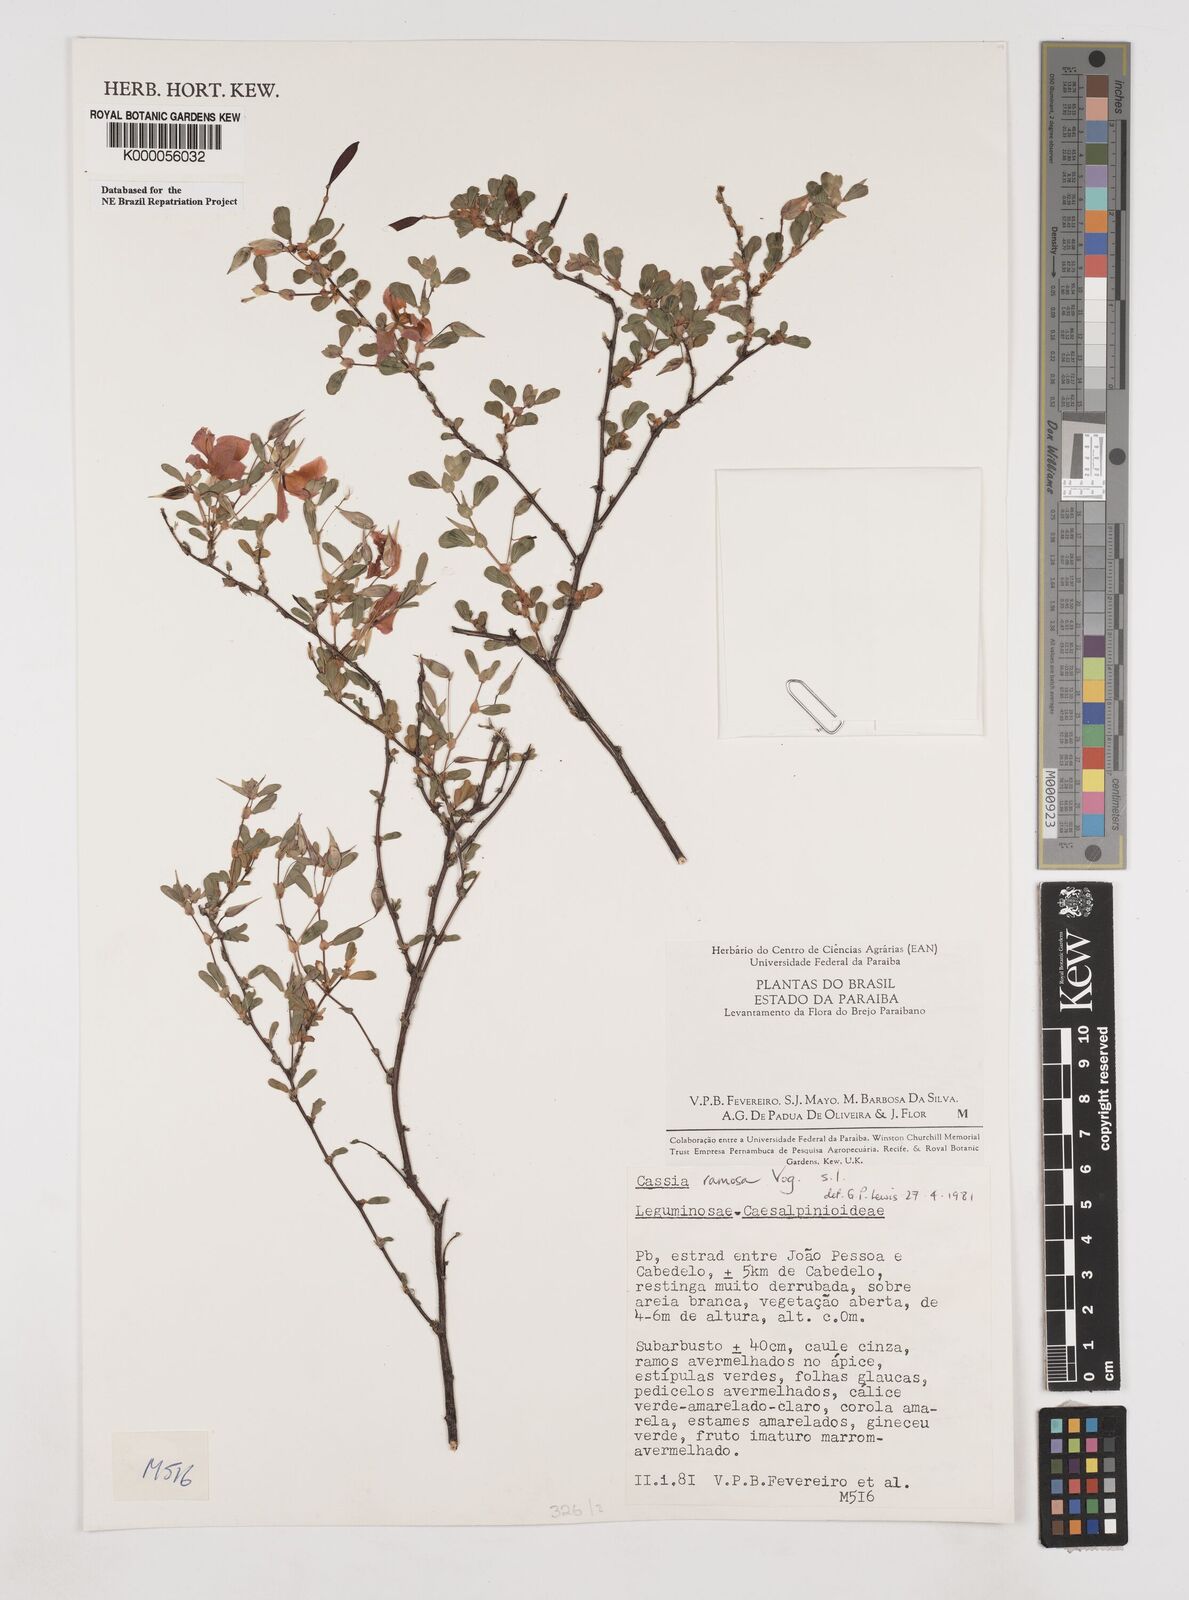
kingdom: Plantae
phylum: Tracheophyta
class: Magnoliopsida
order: Fabales
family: Fabaceae
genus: Chamaecrista
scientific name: Chamaecrista ramosa
